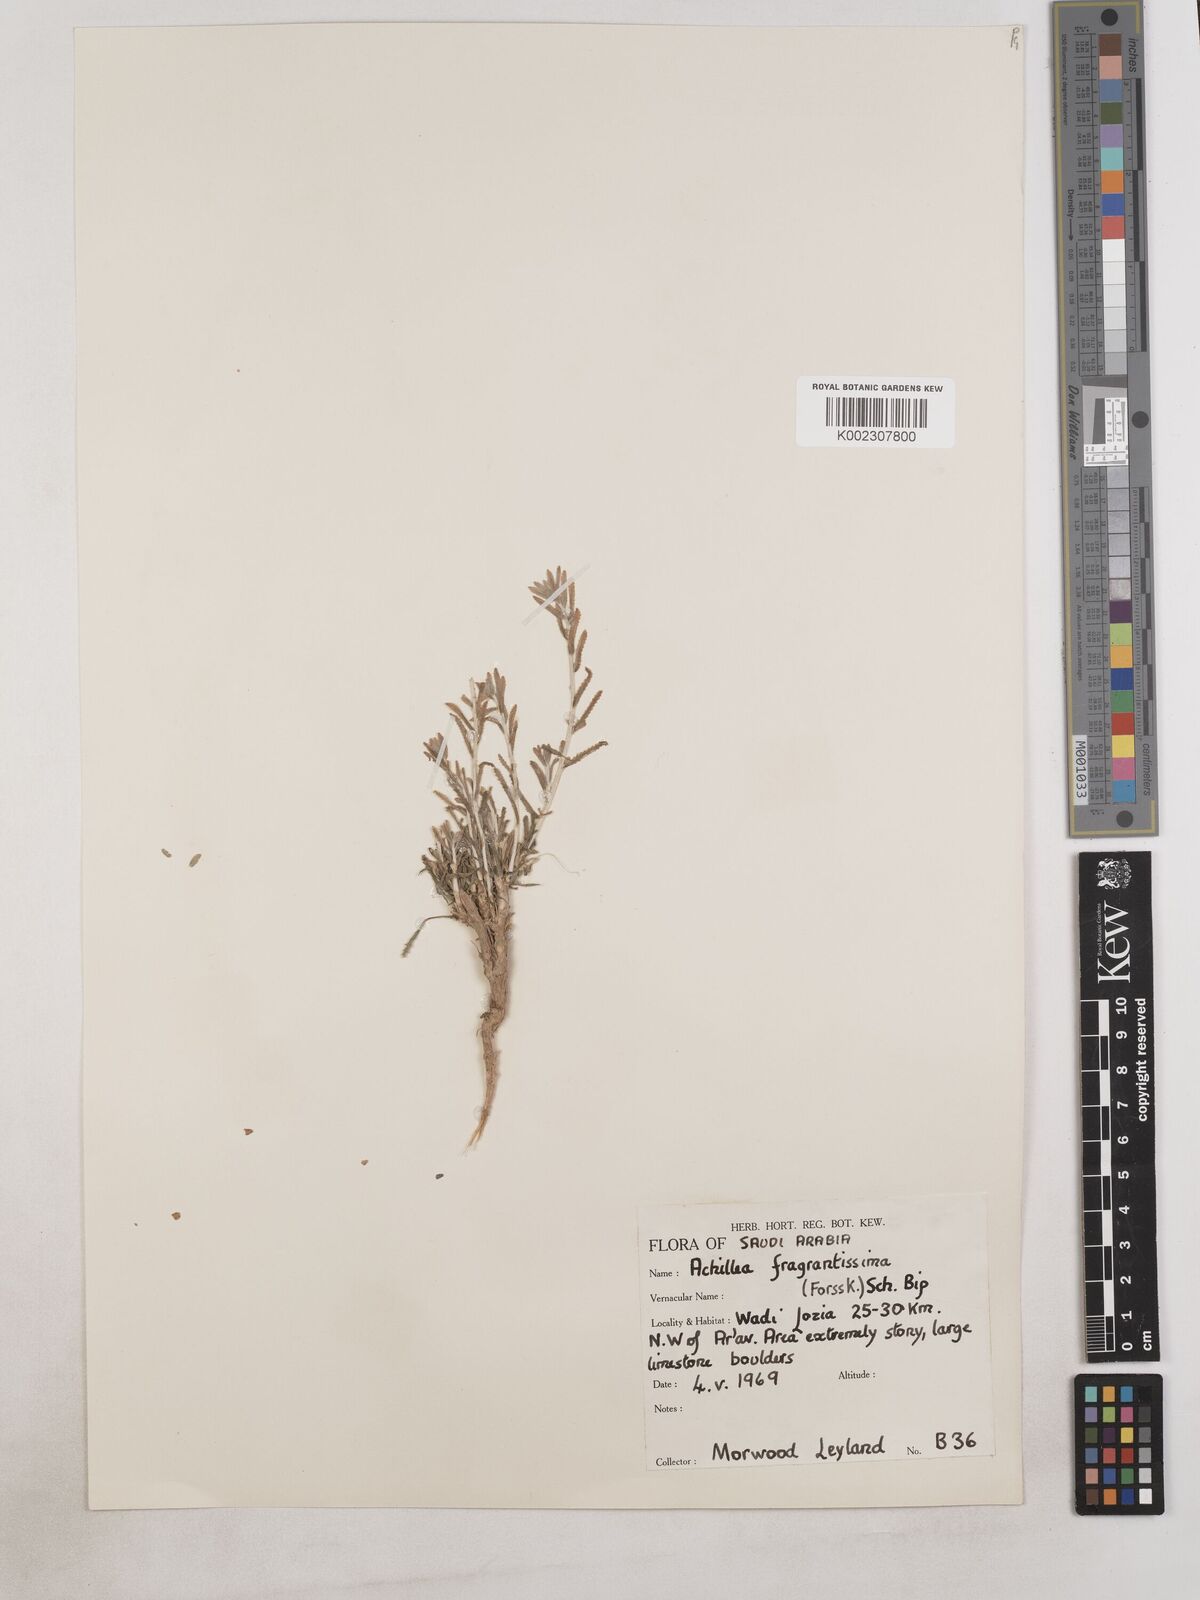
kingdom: Plantae
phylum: Tracheophyta
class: Magnoliopsida
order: Asterales
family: Asteraceae
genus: Achillea
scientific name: Achillea fragrantissima
